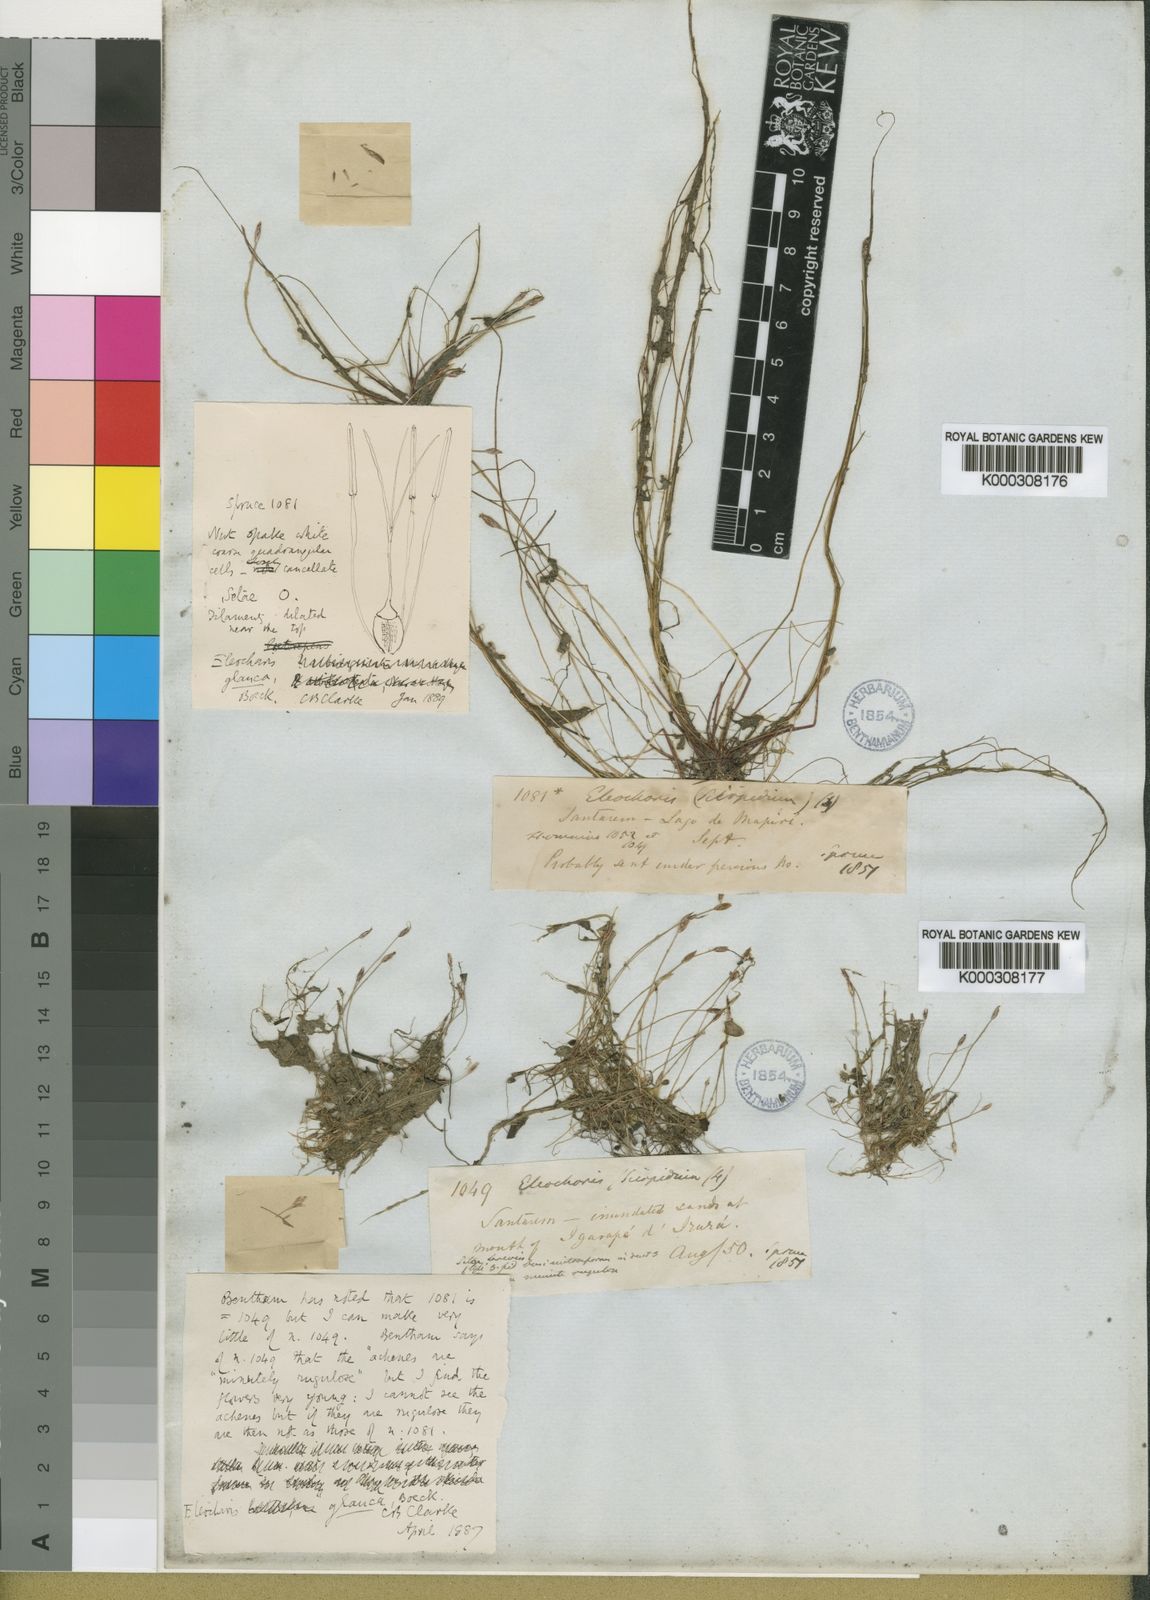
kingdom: Plantae
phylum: Tracheophyta
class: Liliopsida
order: Poales
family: Cyperaceae
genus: Eleocharis
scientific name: Eleocharis glauca
